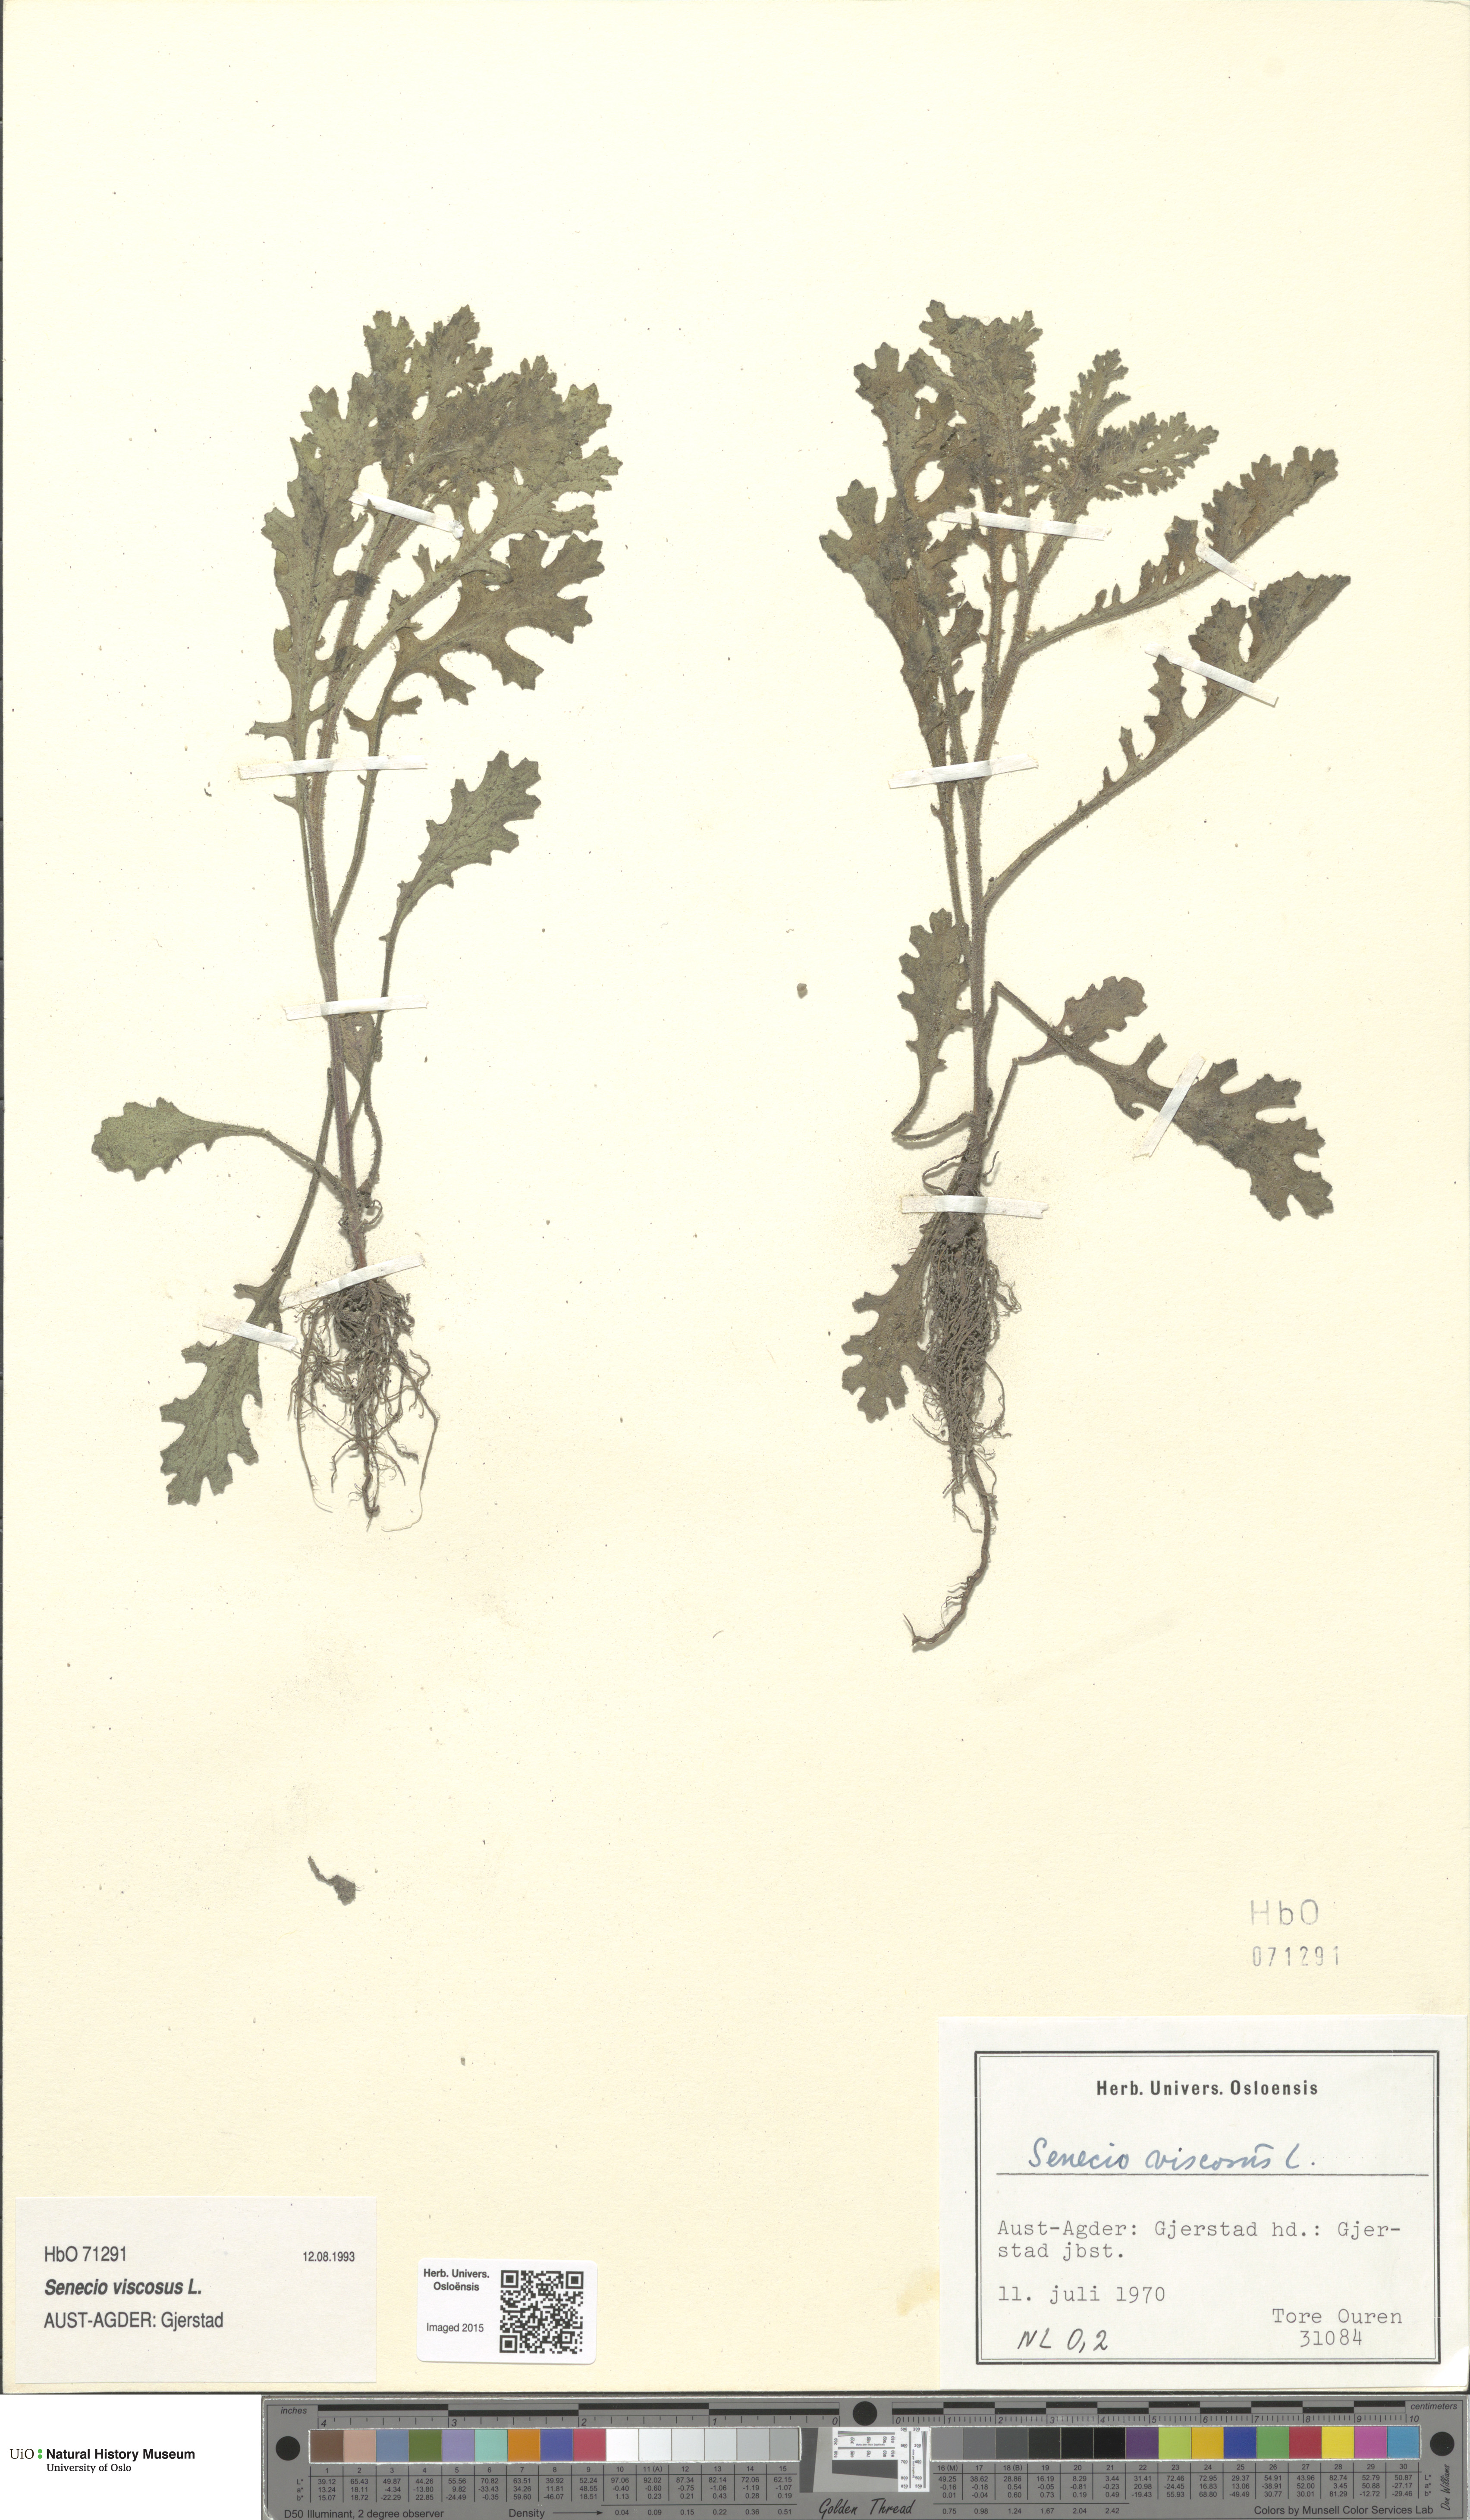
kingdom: Plantae
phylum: Tracheophyta
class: Magnoliopsida
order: Asterales
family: Asteraceae
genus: Senecio
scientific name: Senecio viscosus
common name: Sticky groundsel
